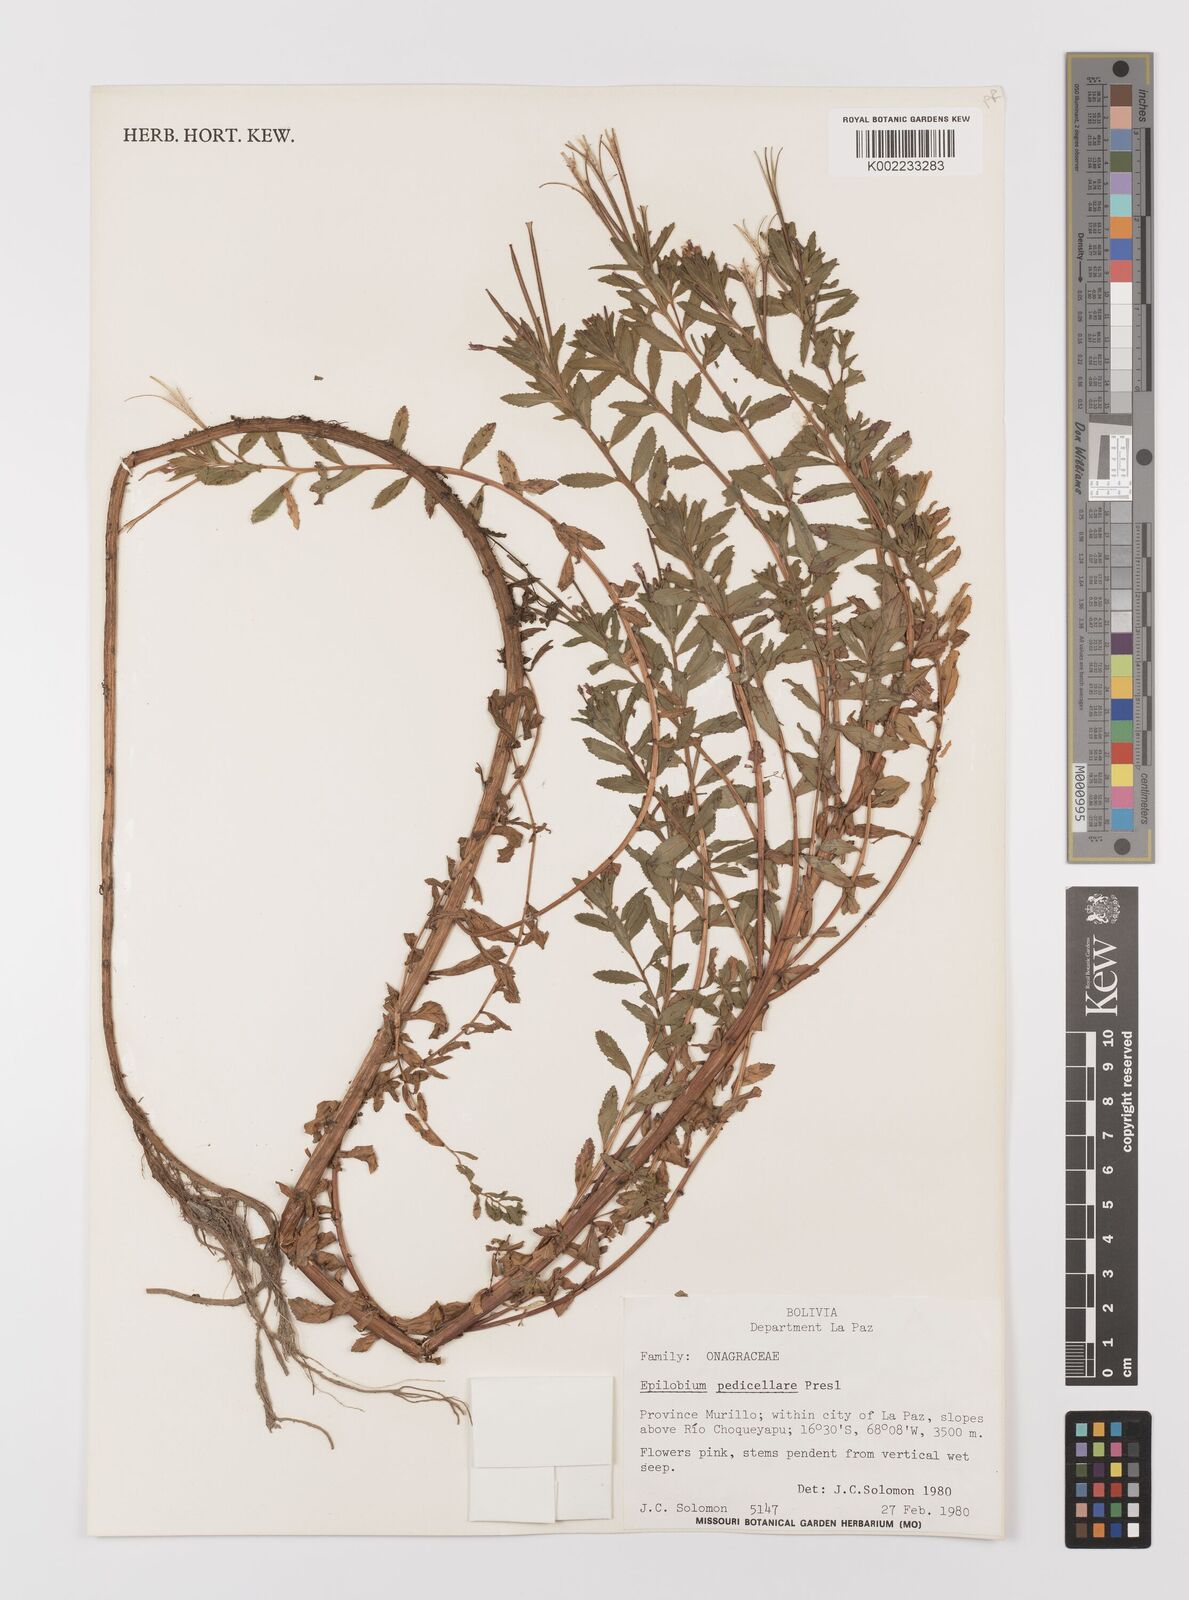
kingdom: Plantae
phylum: Tracheophyta
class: Magnoliopsida
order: Myrtales
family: Onagraceae
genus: Epilobium
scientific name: Epilobium pedicellare
